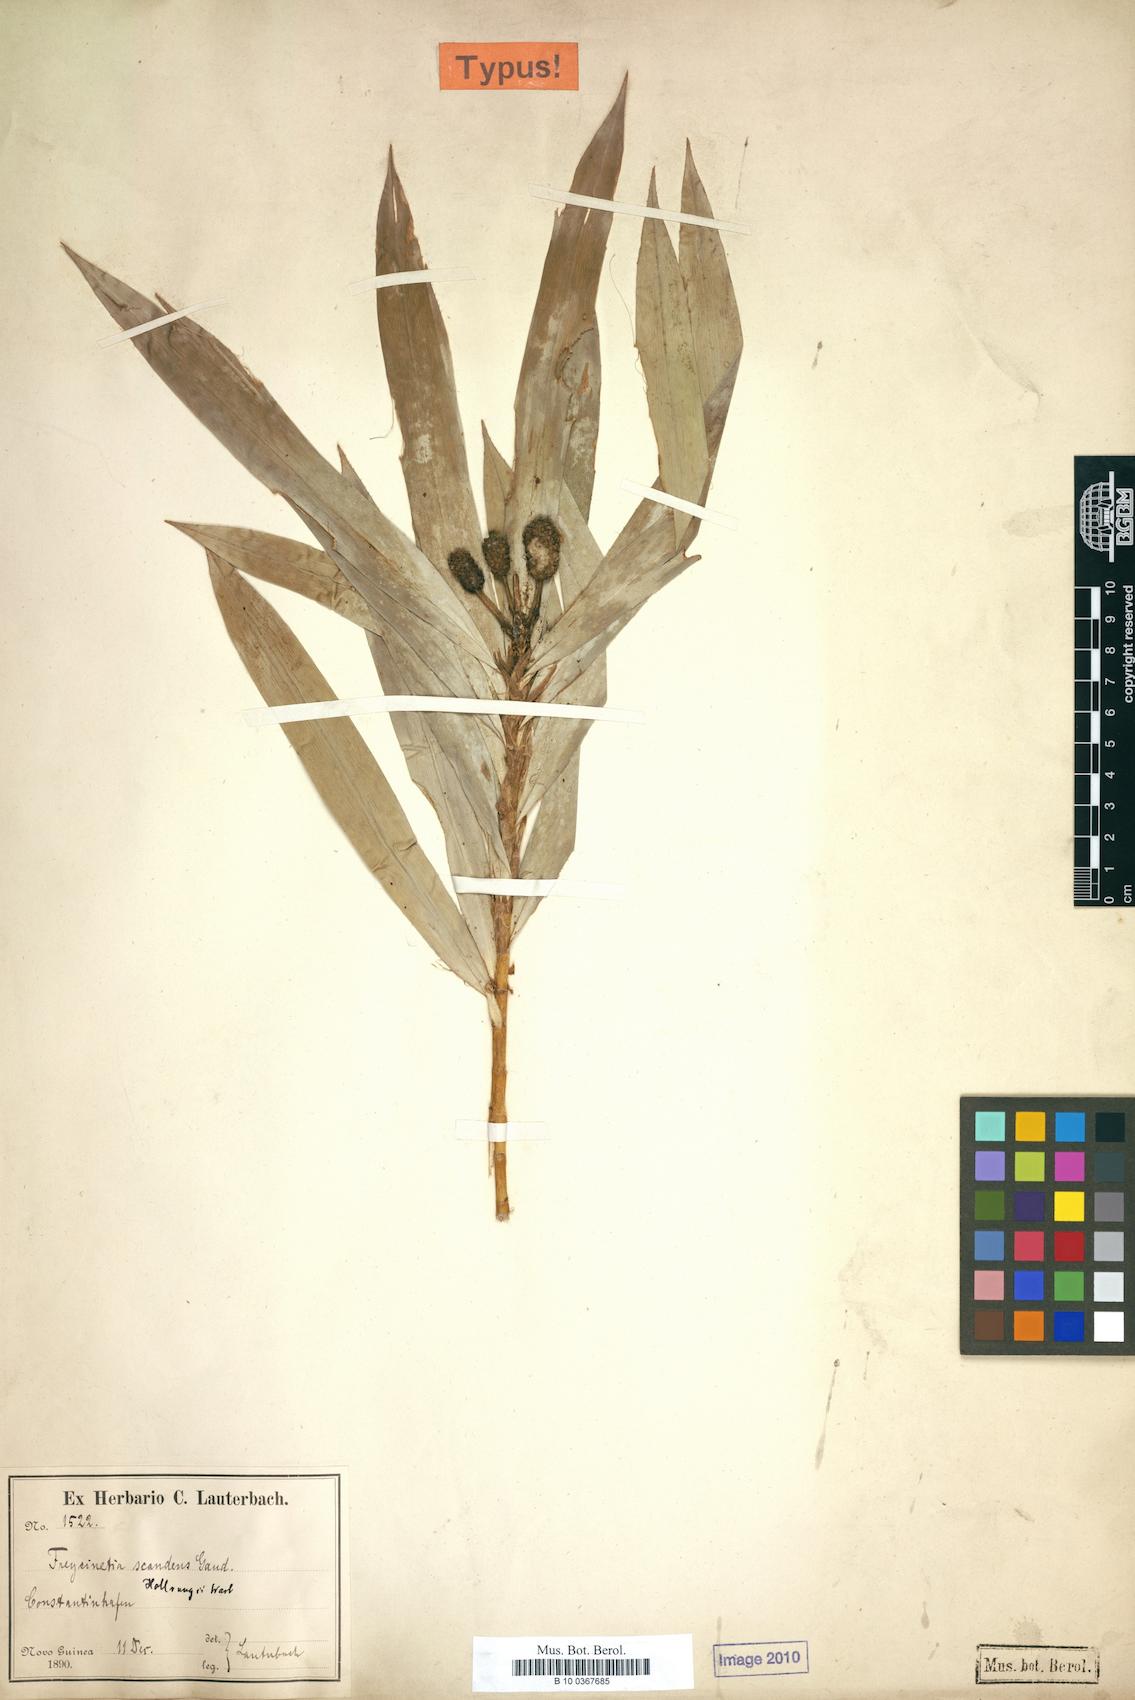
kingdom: Plantae
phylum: Tracheophyta
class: Liliopsida
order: Pandanales
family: Pandanaceae
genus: Freycinetia
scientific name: Freycinetia scandens
